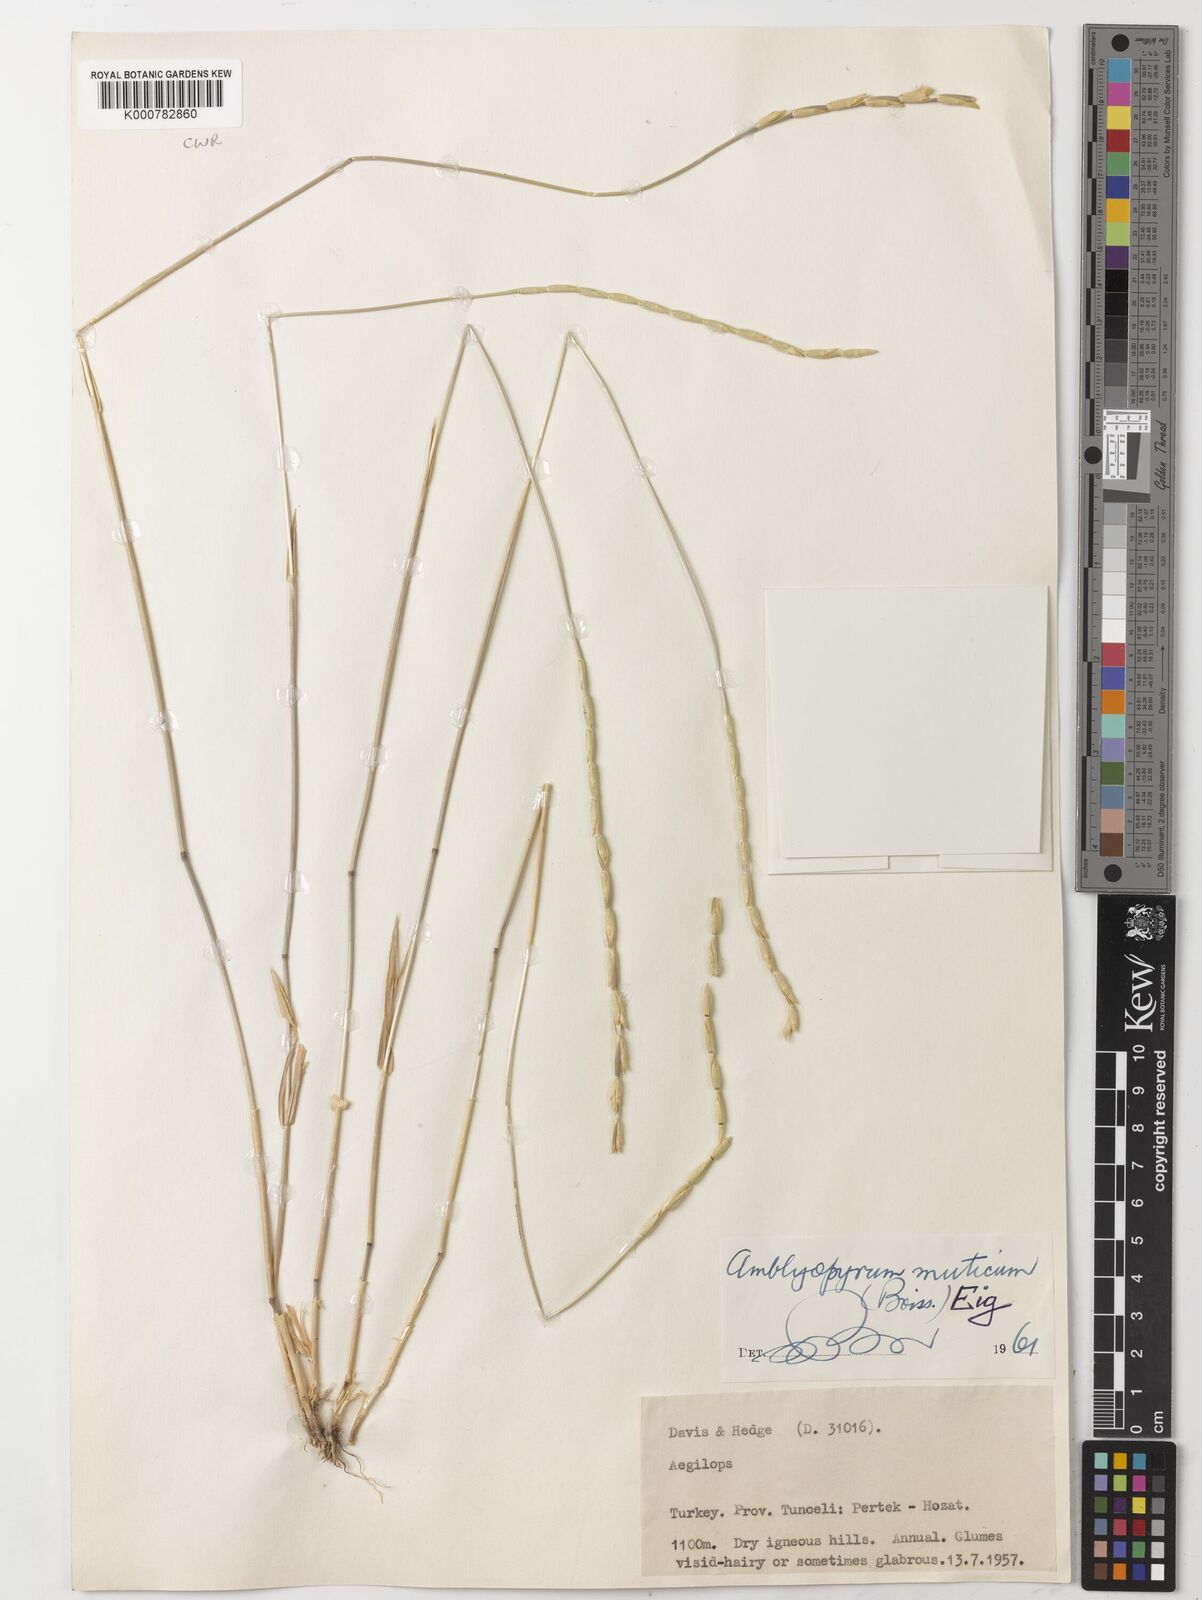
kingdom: Plantae
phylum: Tracheophyta
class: Liliopsida
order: Poales
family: Poaceae
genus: Aegilops
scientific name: Aegilops mutica
